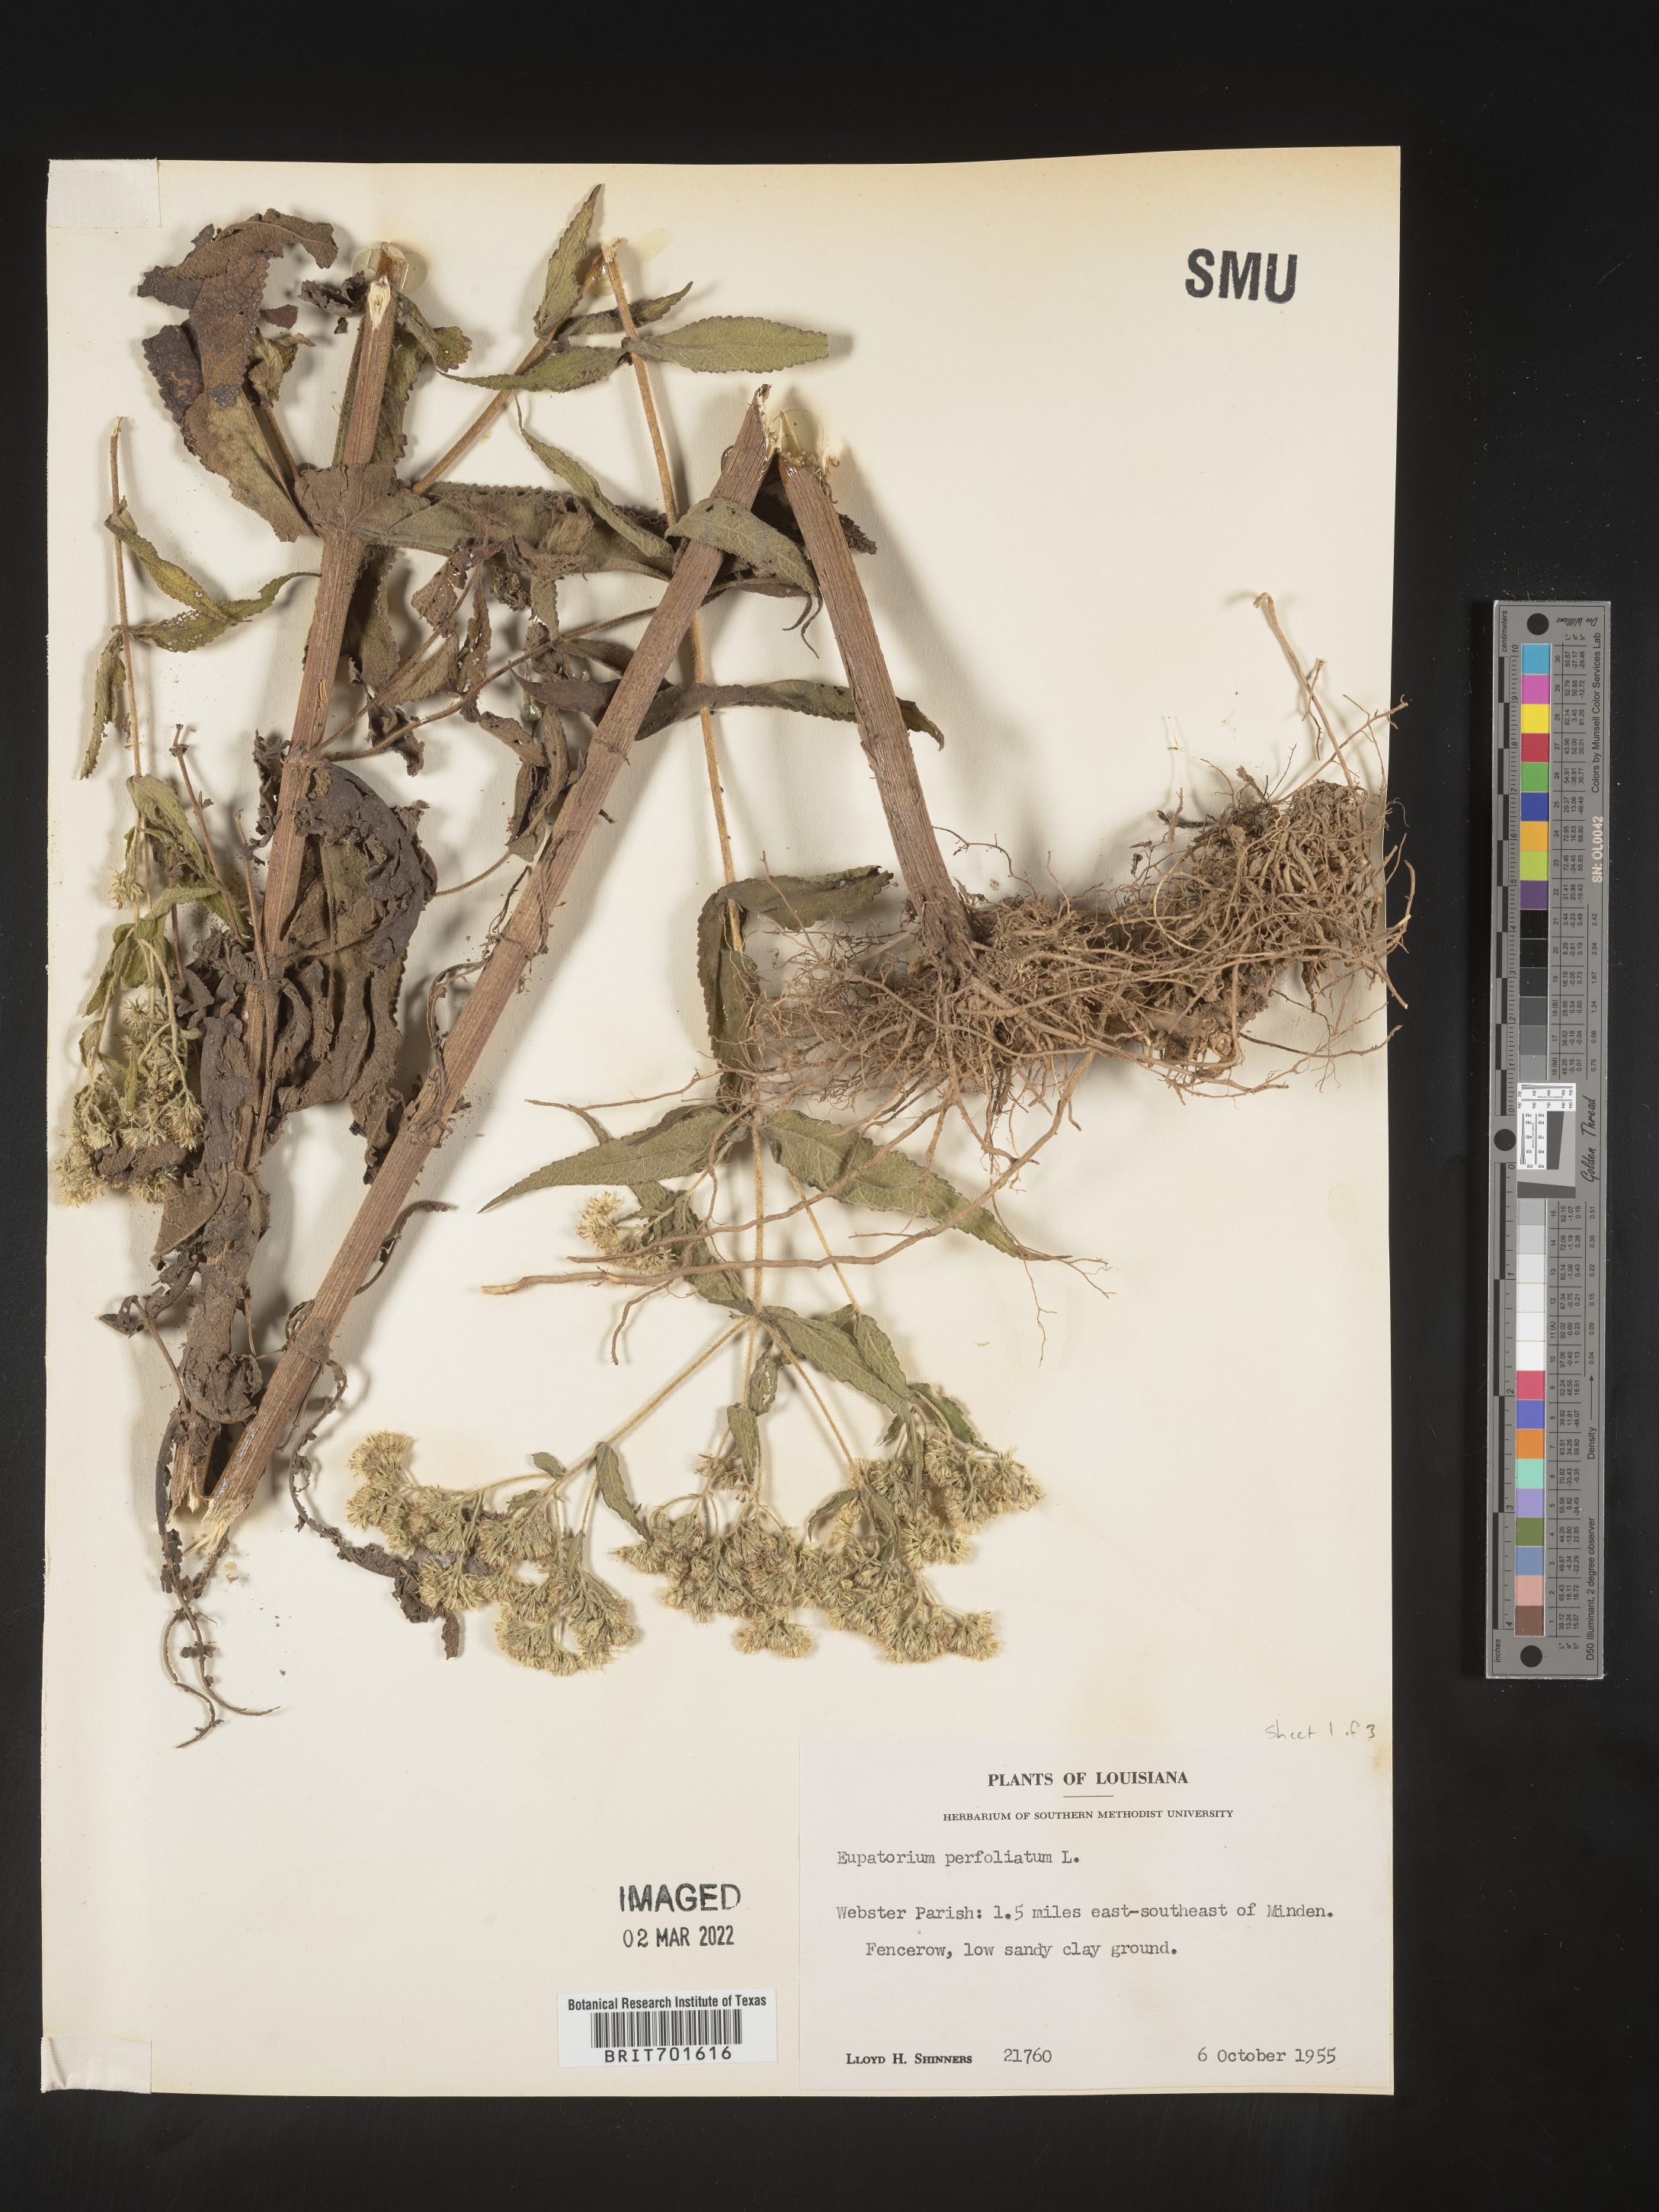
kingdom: Plantae
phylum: Tracheophyta
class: Magnoliopsida
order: Asterales
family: Asteraceae
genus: Eupatorium
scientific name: Eupatorium perfoliatum
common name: Boneset
